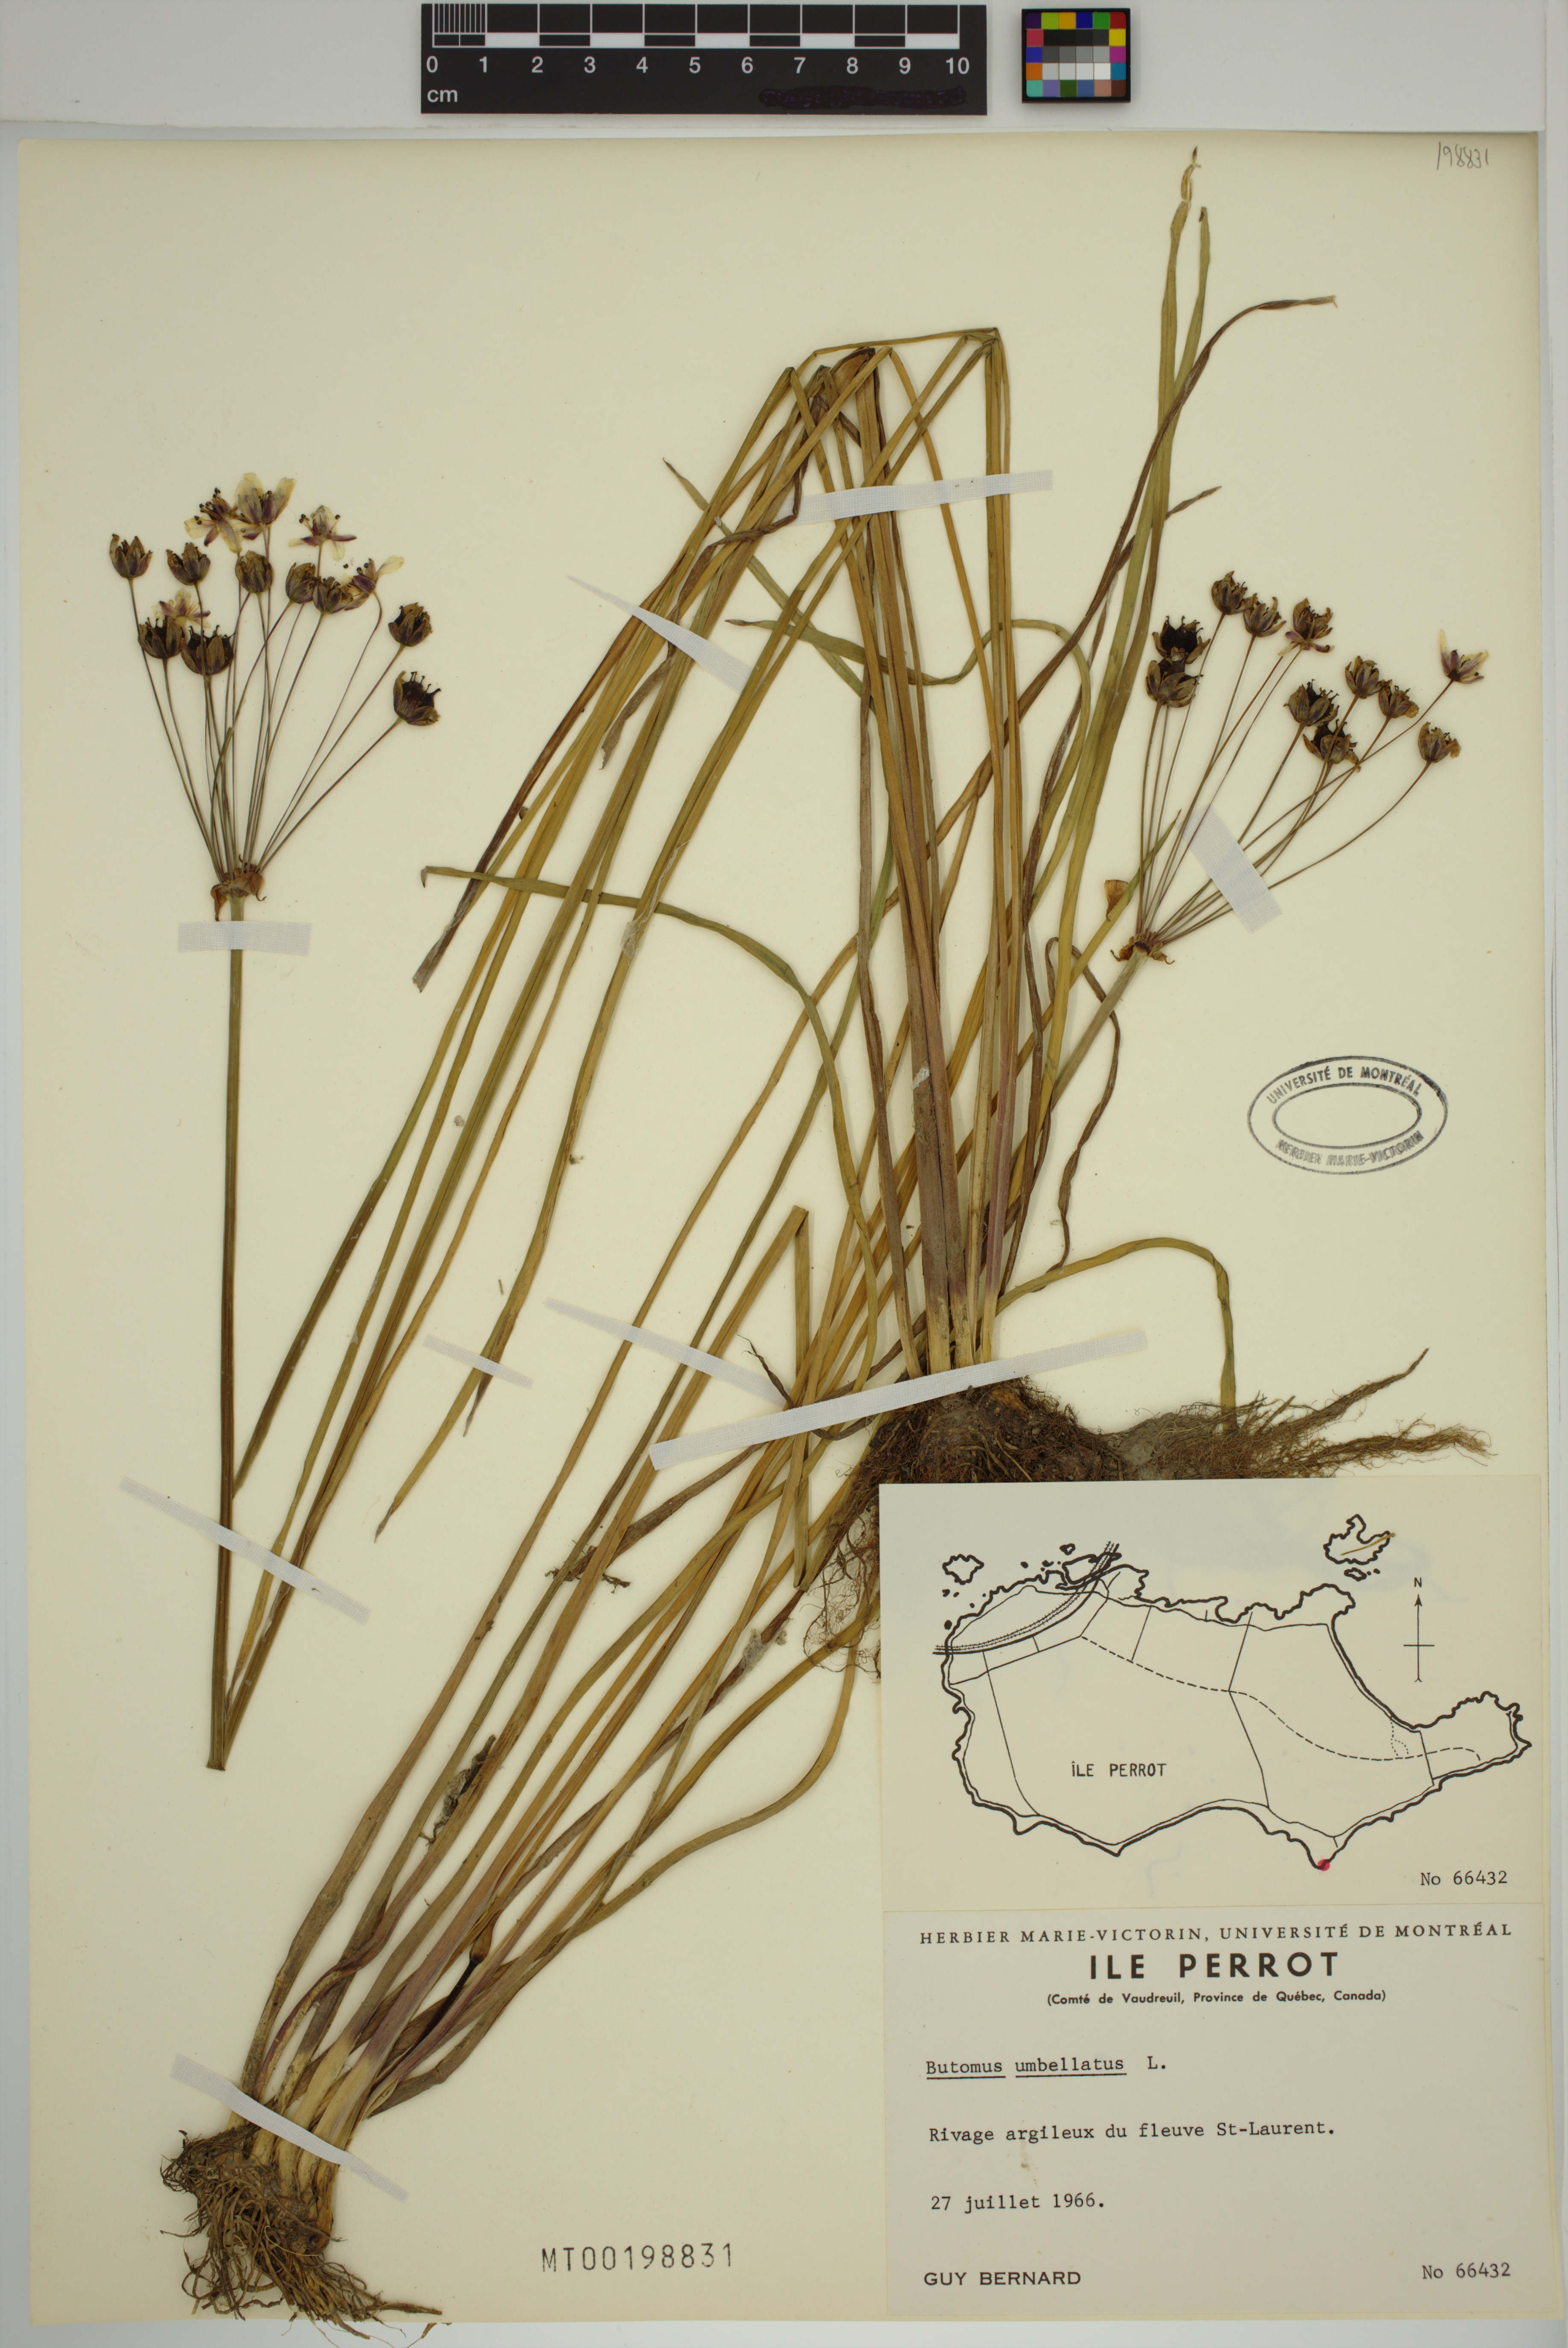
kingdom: Plantae
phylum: Tracheophyta
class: Liliopsida
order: Alismatales
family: Butomaceae
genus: Butomus
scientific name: Butomus umbellatus
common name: Flowering-rush
